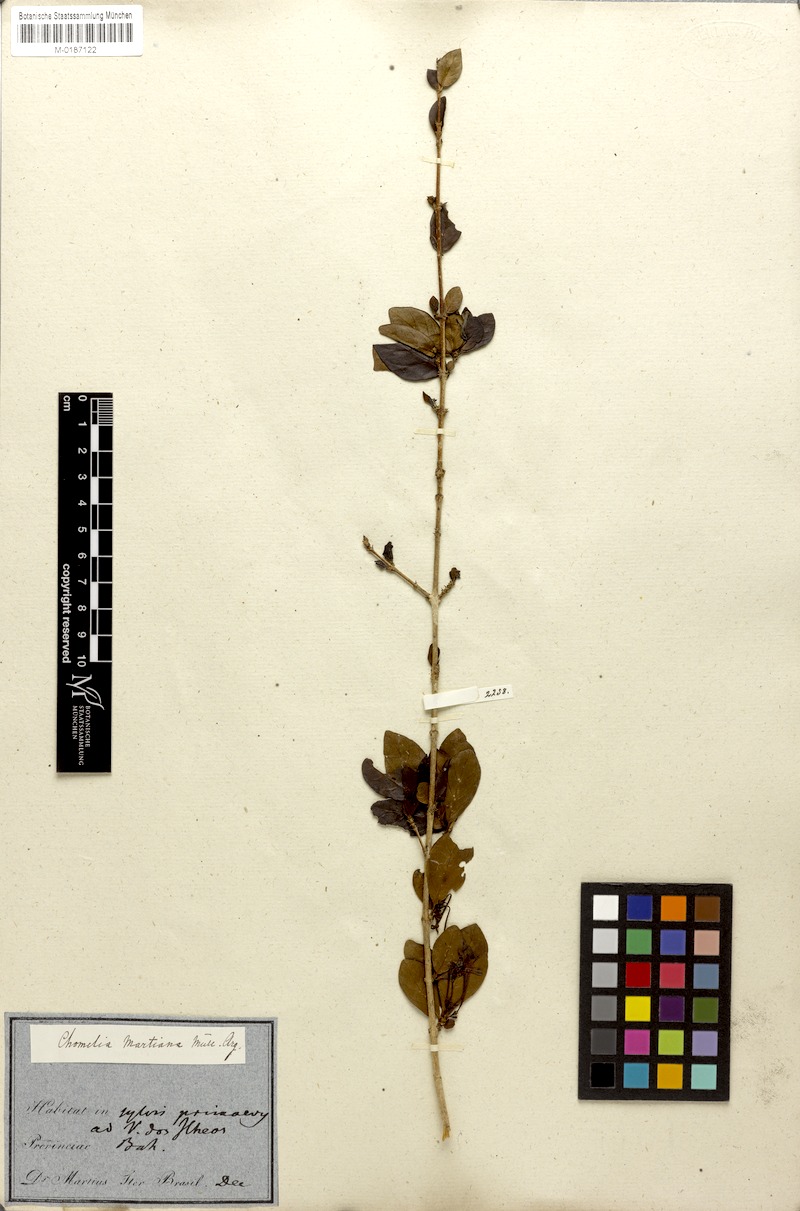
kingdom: Plantae
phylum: Tracheophyta
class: Magnoliopsida
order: Gentianales
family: Rubiaceae
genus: Chomelia
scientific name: Chomelia obtusa
